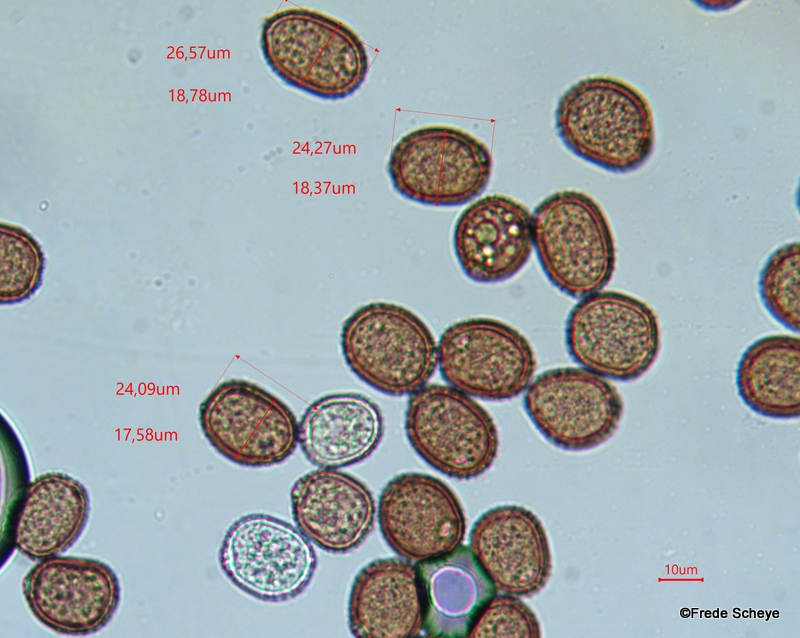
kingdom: Fungi
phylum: Basidiomycota
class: Pucciniomycetes
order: Pucciniales
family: Pucciniaceae
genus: Puccinia
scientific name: Puccinia komarovii
